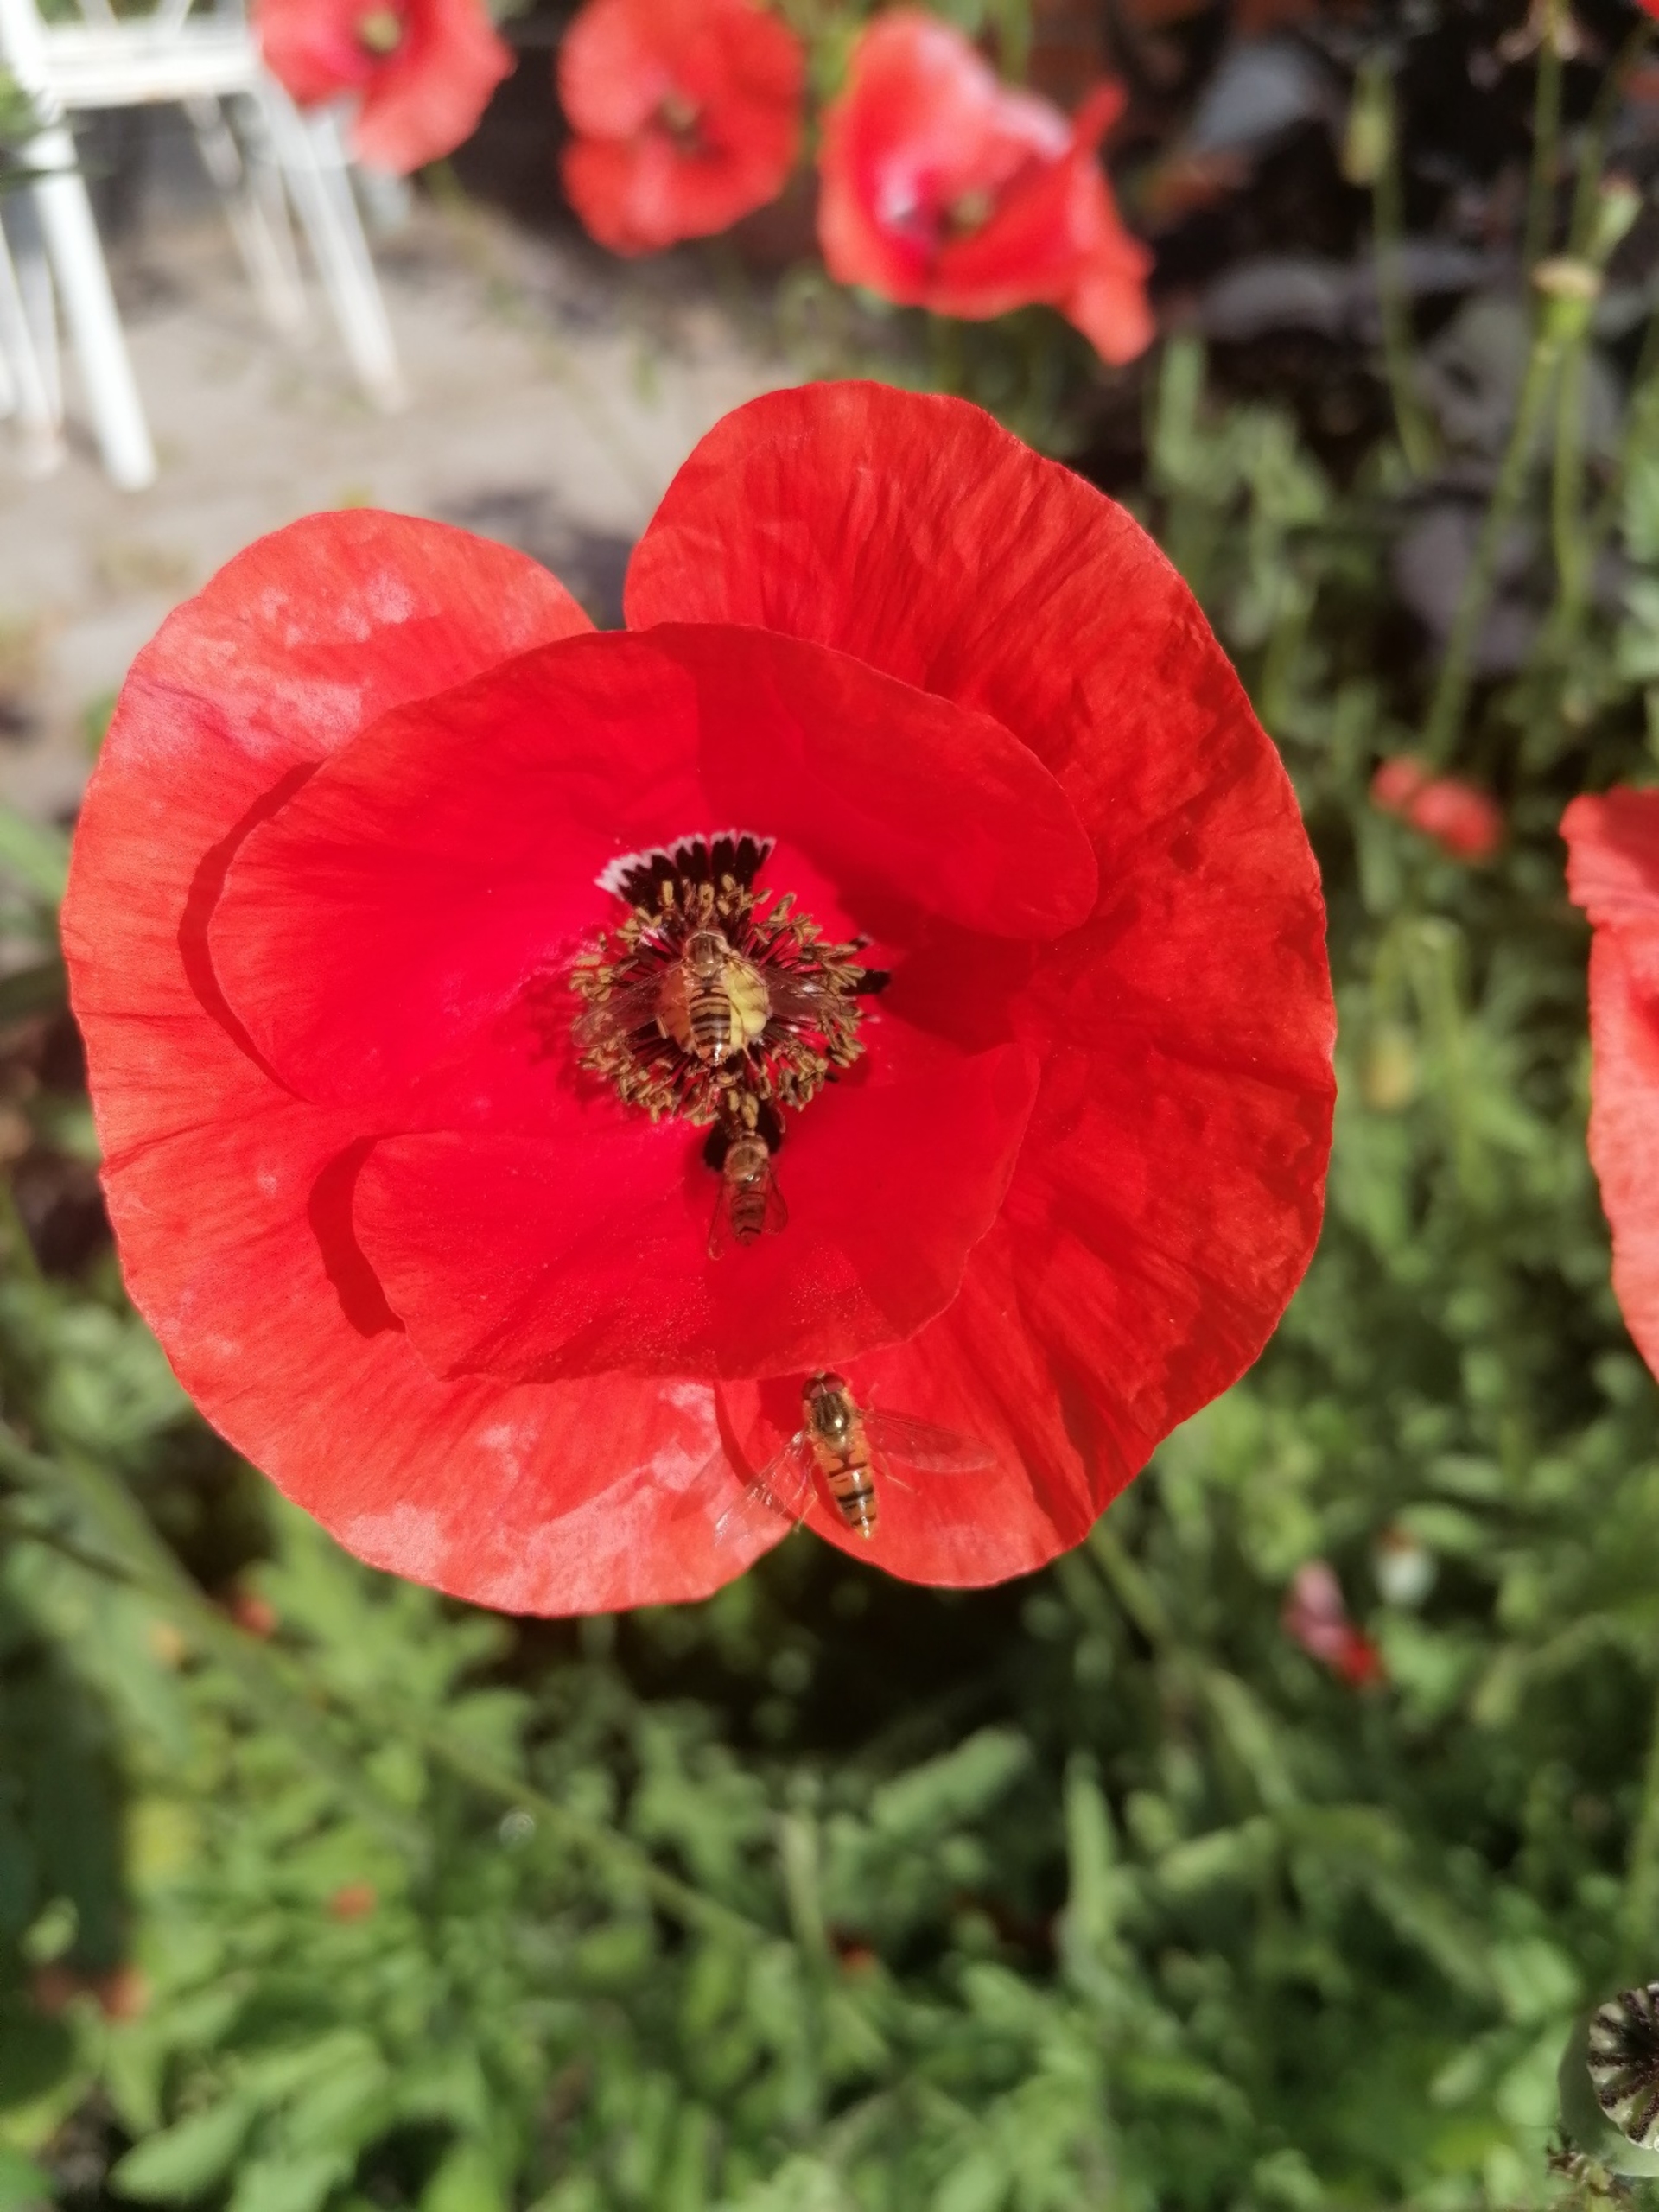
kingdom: Animalia
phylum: Arthropoda
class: Insecta
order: Diptera
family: Syrphidae
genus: Episyrphus
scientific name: Episyrphus balteatus
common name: Dobbeltbåndet svirreflue
